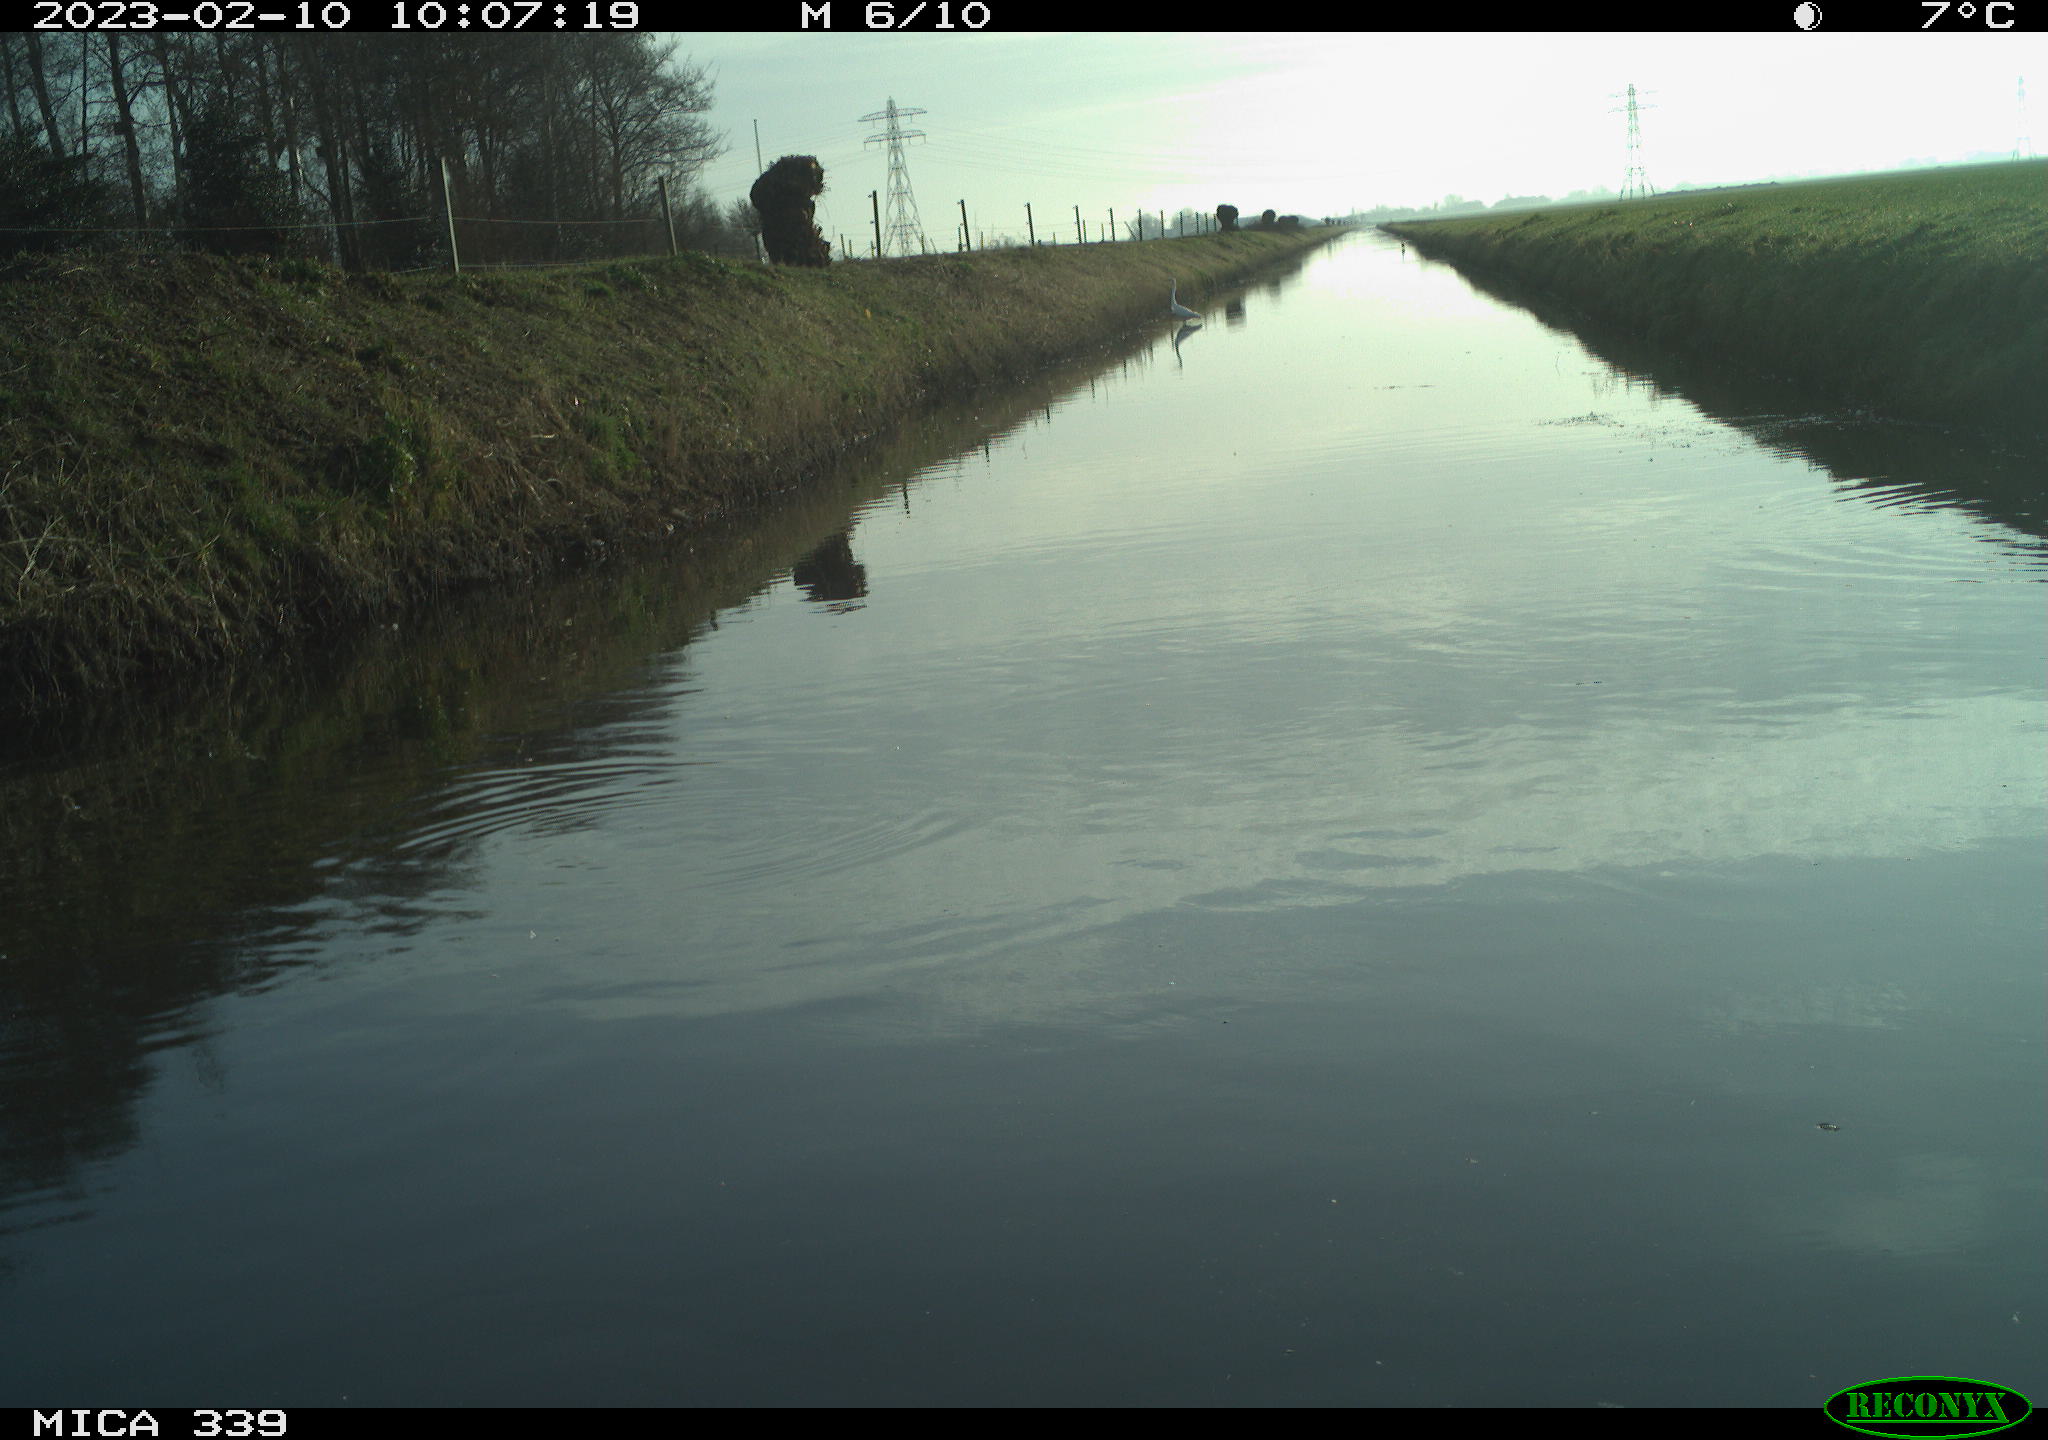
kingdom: Animalia
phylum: Chordata
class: Aves
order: Pelecaniformes
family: Ardeidae
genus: Ardea
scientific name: Ardea cinerea
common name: Grey heron
